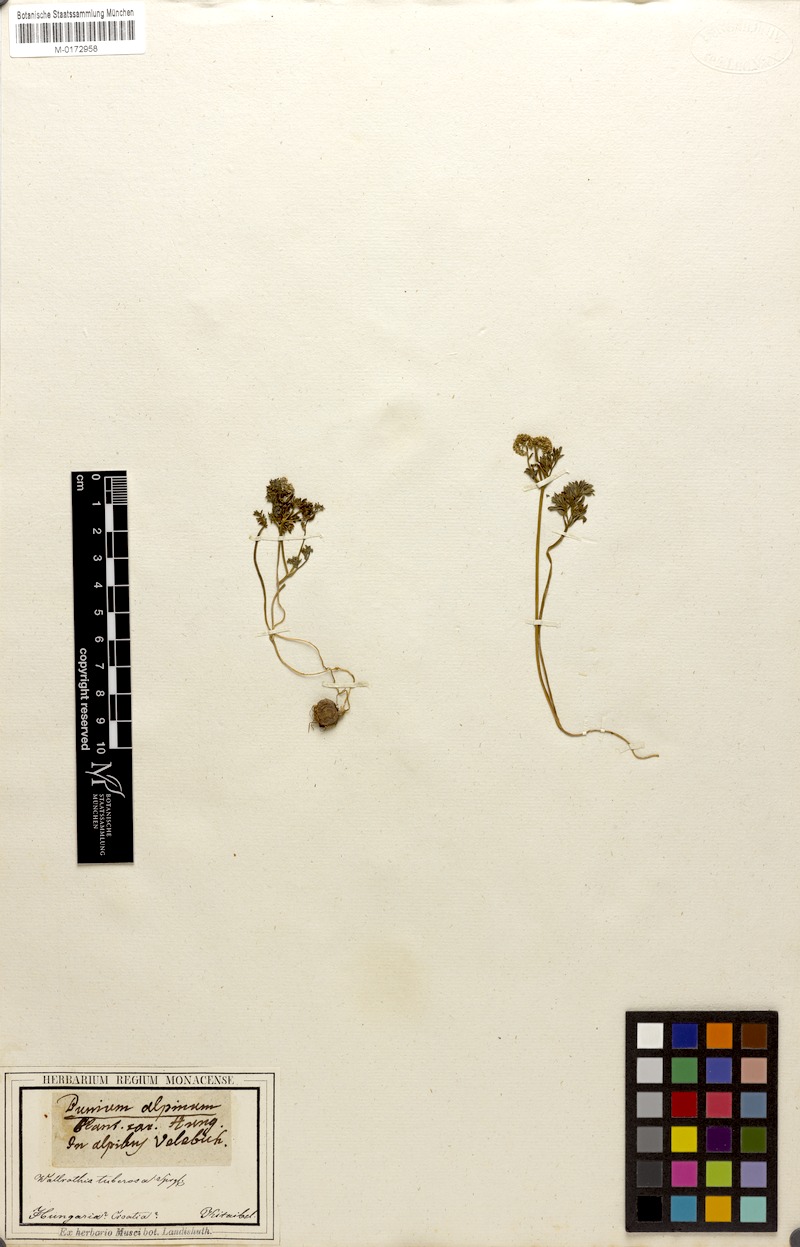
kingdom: Plantae
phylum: Tracheophyta
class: Magnoliopsida
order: Apiales
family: Apiaceae
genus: Bunium
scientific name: Bunium alpinum
